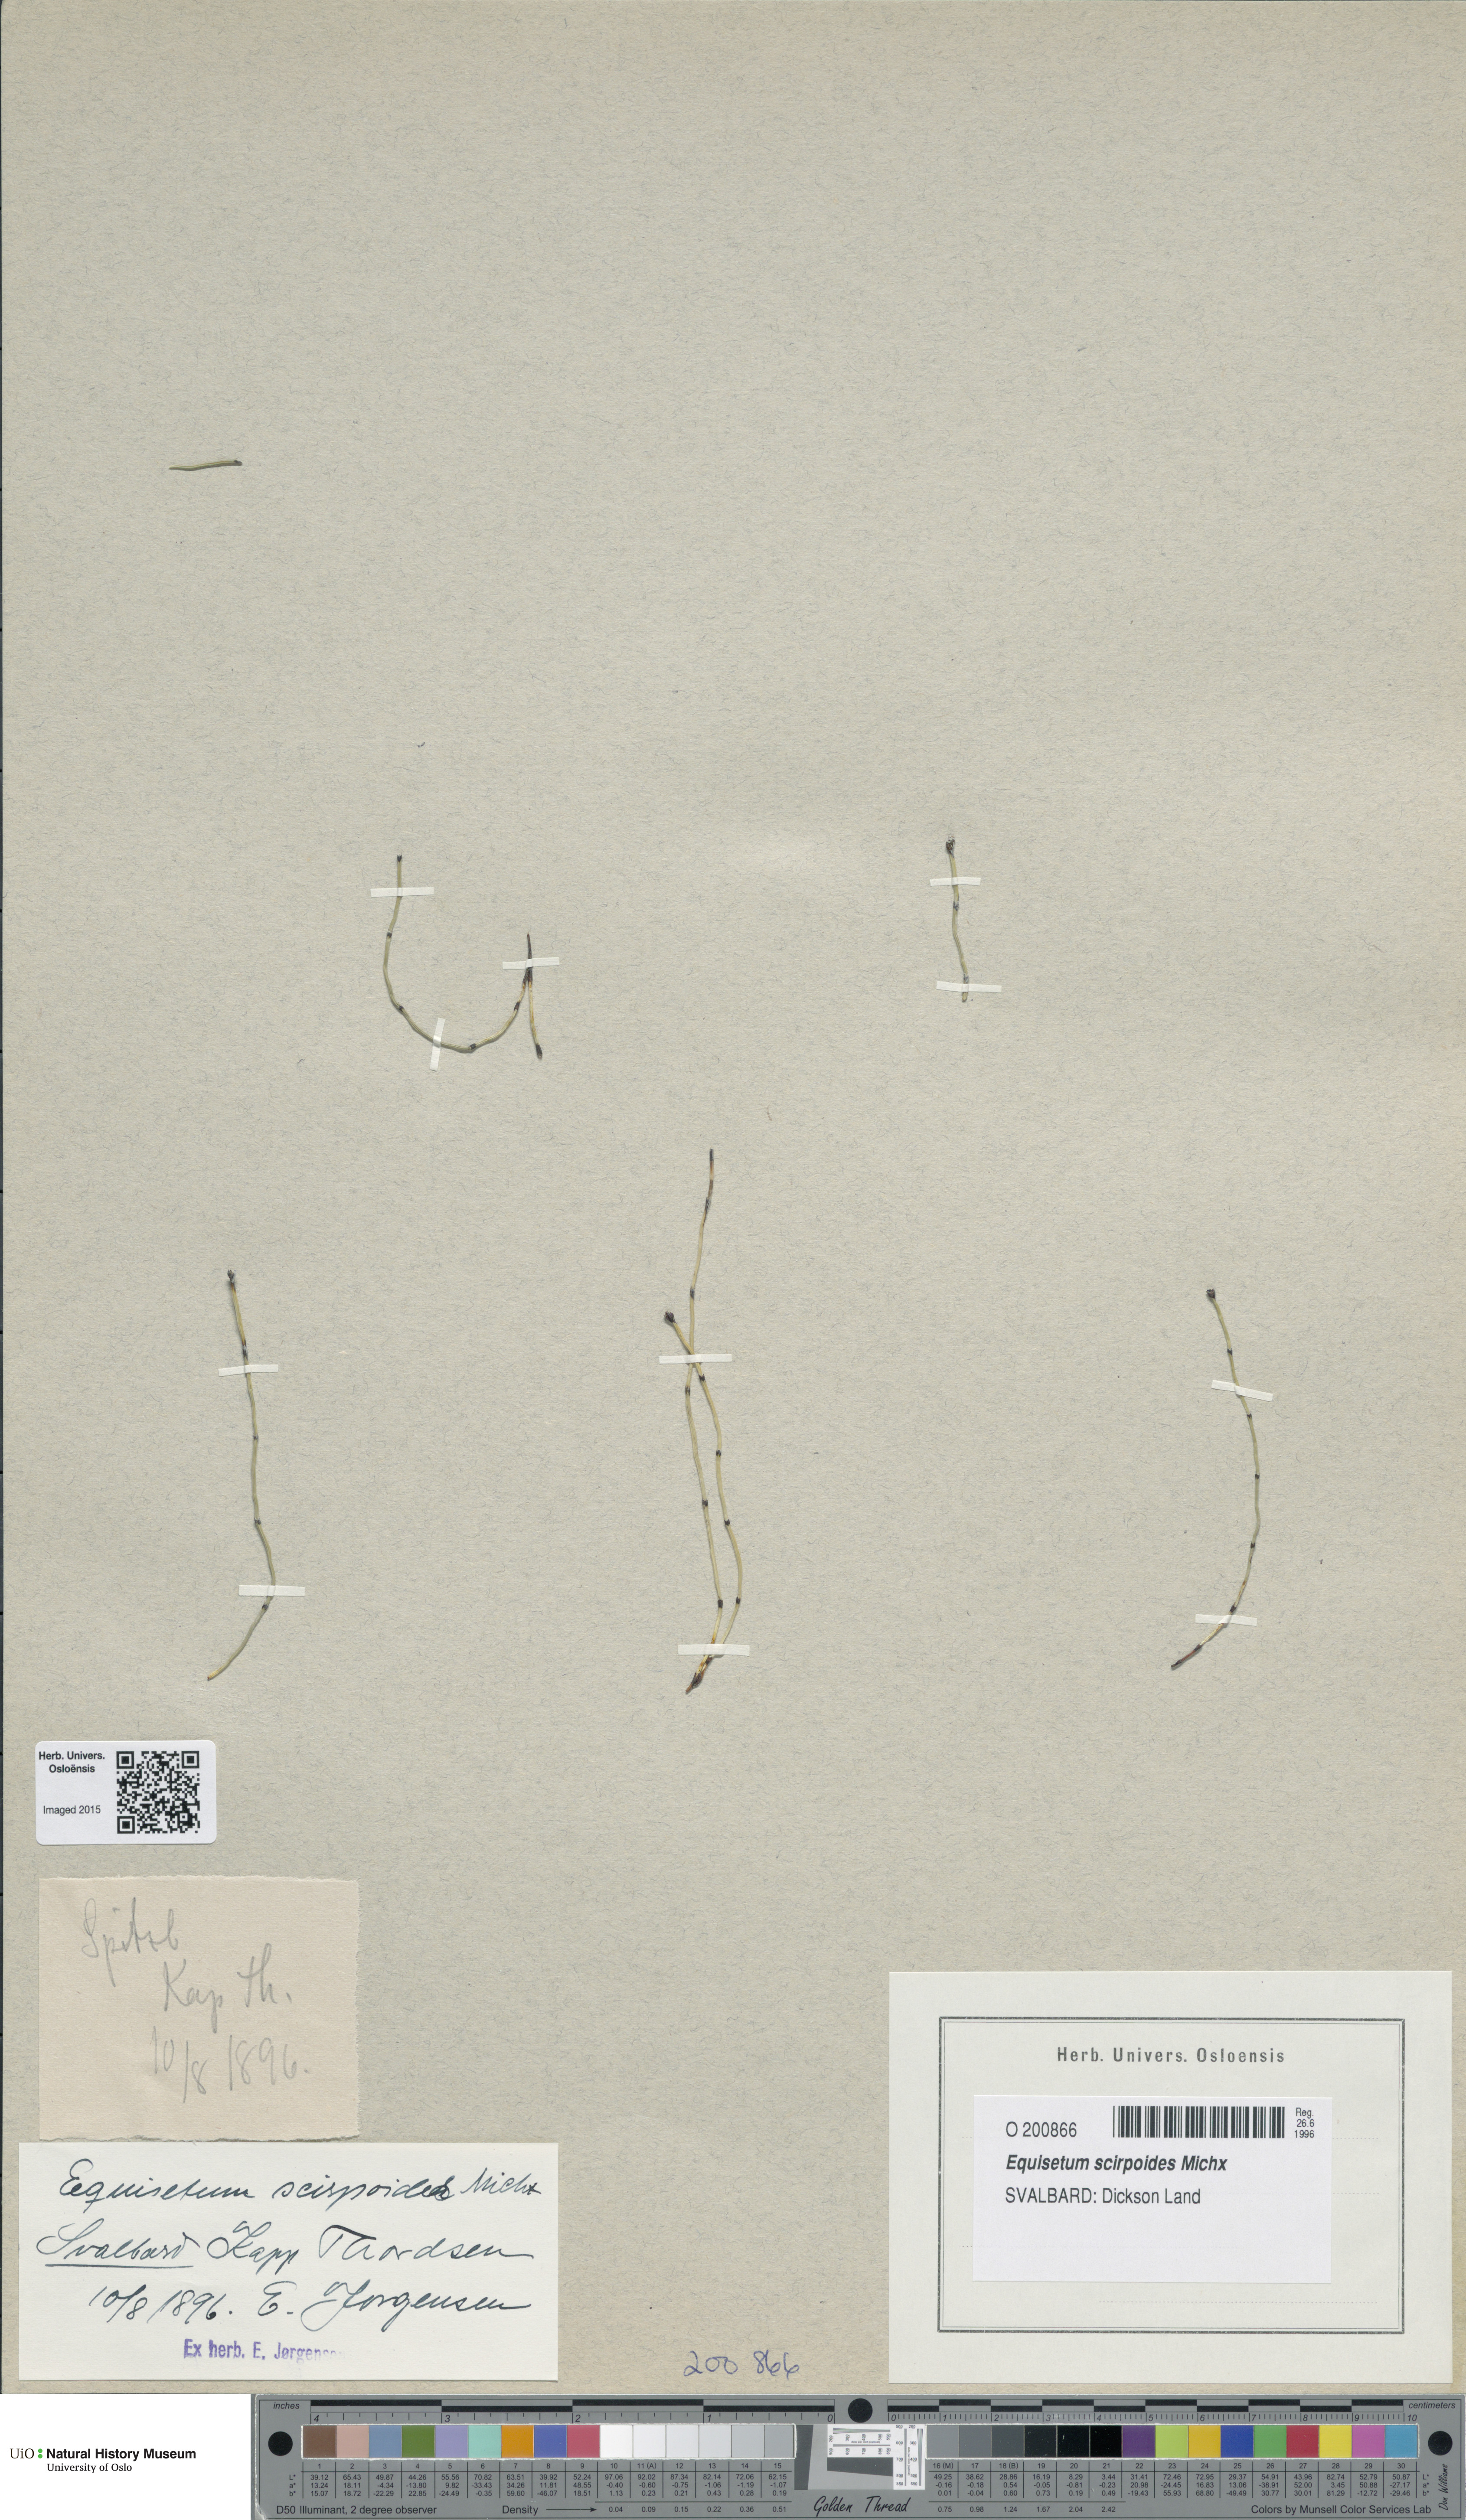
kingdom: Plantae
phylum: Tracheophyta
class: Polypodiopsida
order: Equisetales
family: Equisetaceae
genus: Equisetum
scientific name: Equisetum scirpoides
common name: Delicate horsetail
